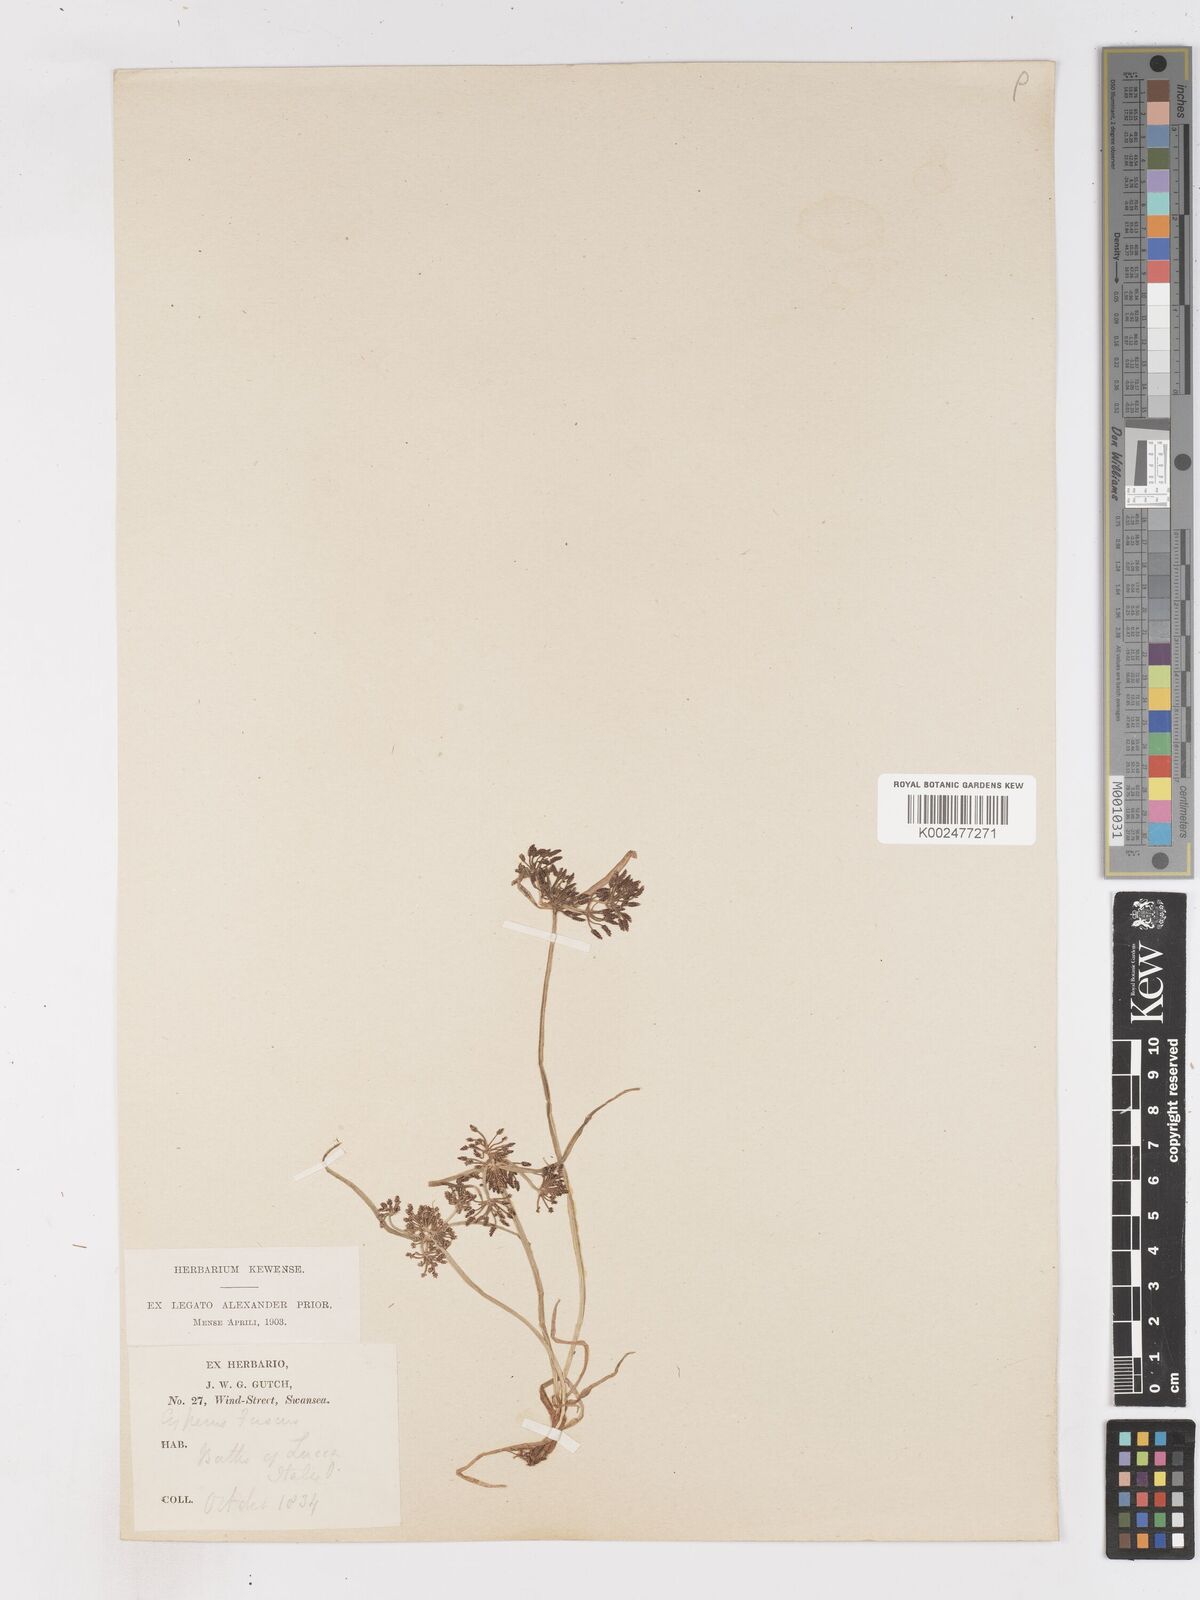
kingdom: Plantae
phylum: Tracheophyta
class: Liliopsida
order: Poales
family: Cyperaceae
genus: Cyperus
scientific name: Cyperus fuscus
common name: Brown galingale
